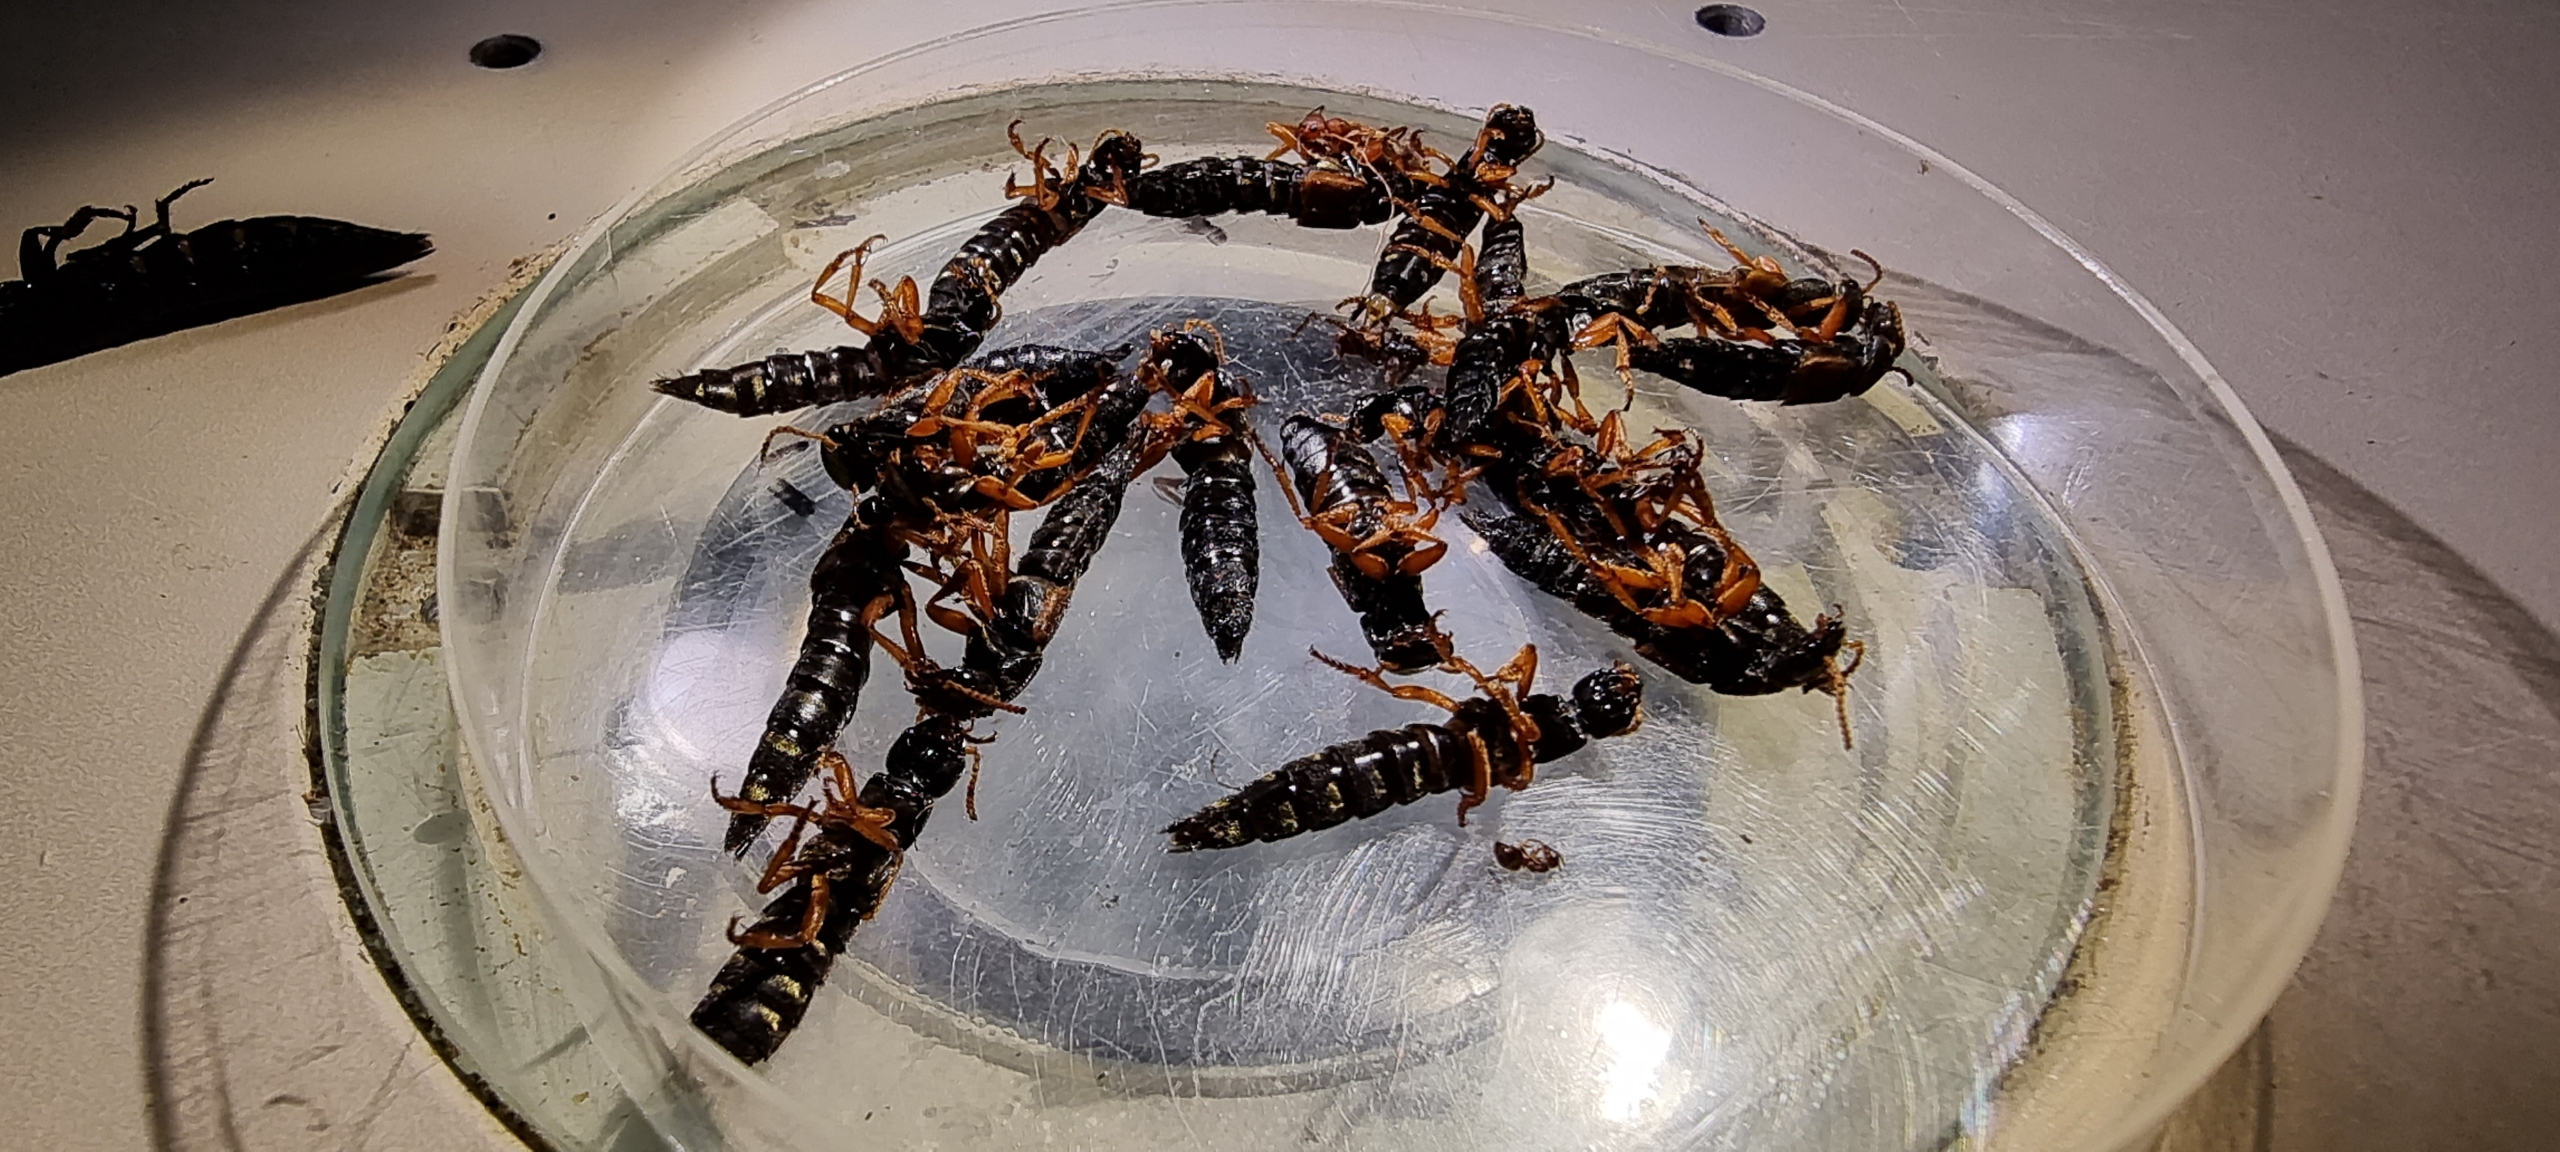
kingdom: Animalia
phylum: Arthropoda
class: Insecta
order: Coleoptera
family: Staphylinidae
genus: Staphylinus
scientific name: Staphylinus caesareus
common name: Kejserrovbille
